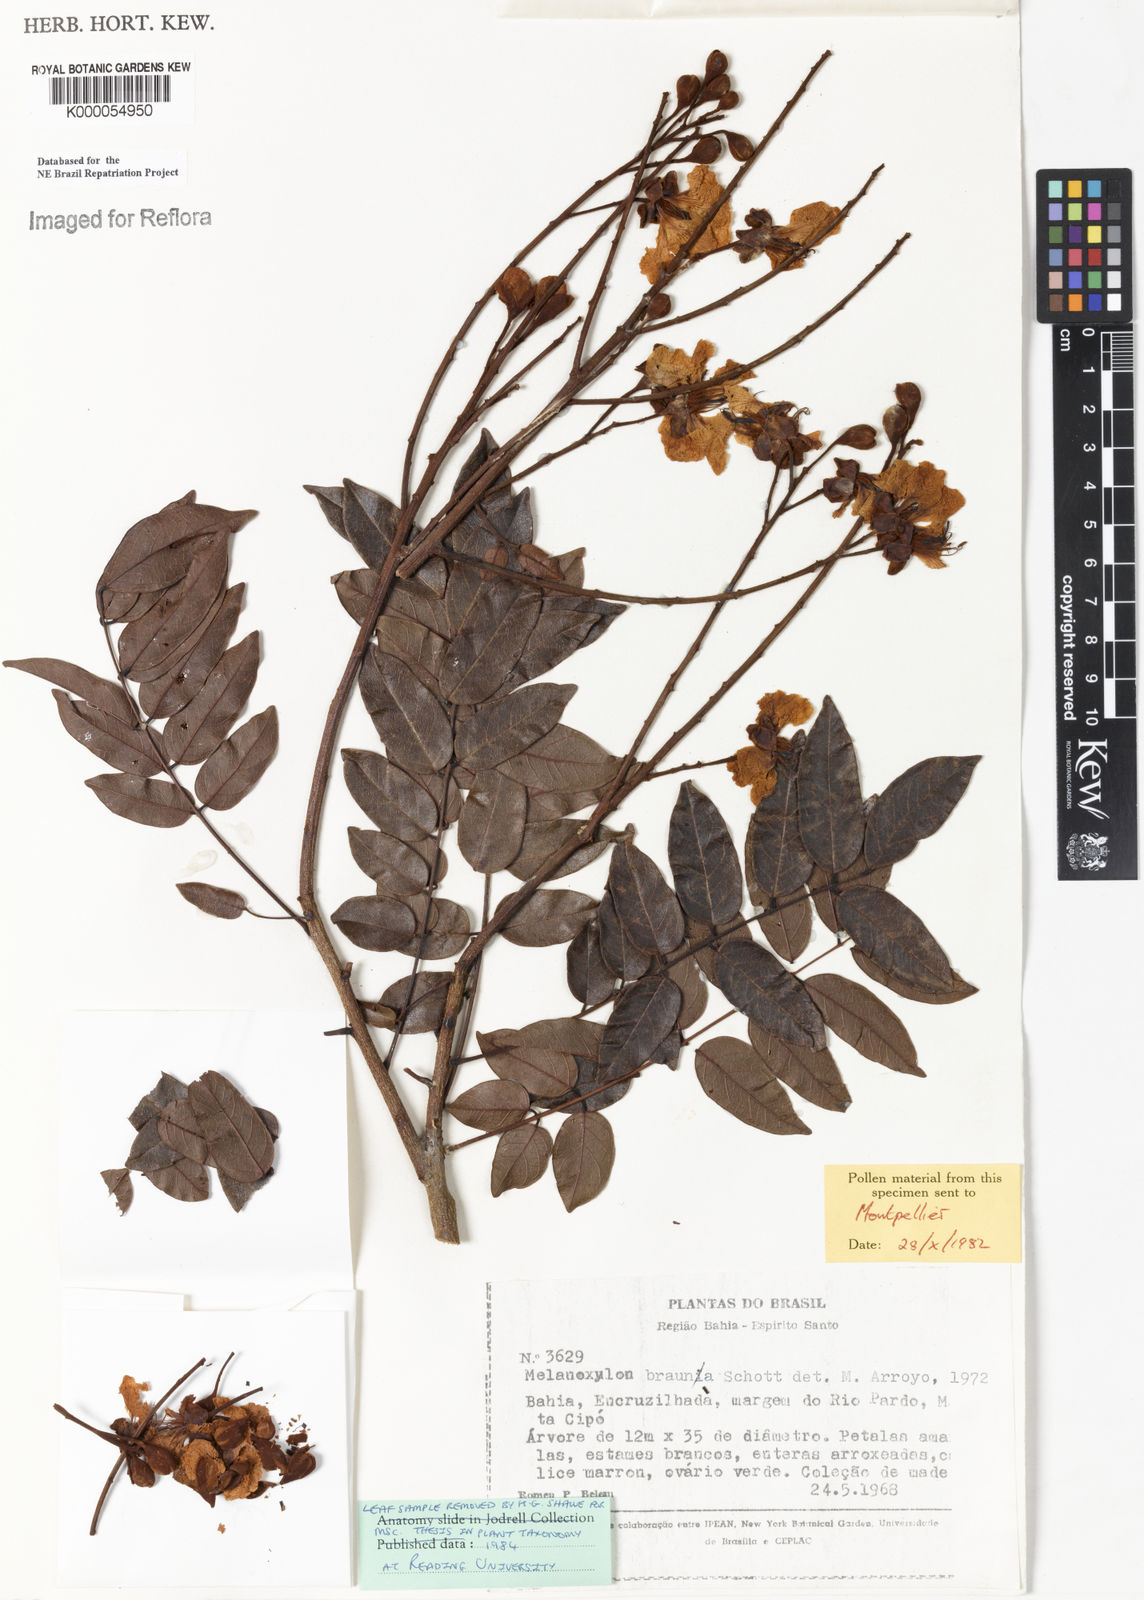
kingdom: Plantae
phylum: Tracheophyta
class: Magnoliopsida
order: Fabales
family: Fabaceae
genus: Melanoxylum
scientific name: Melanoxylum brauna
